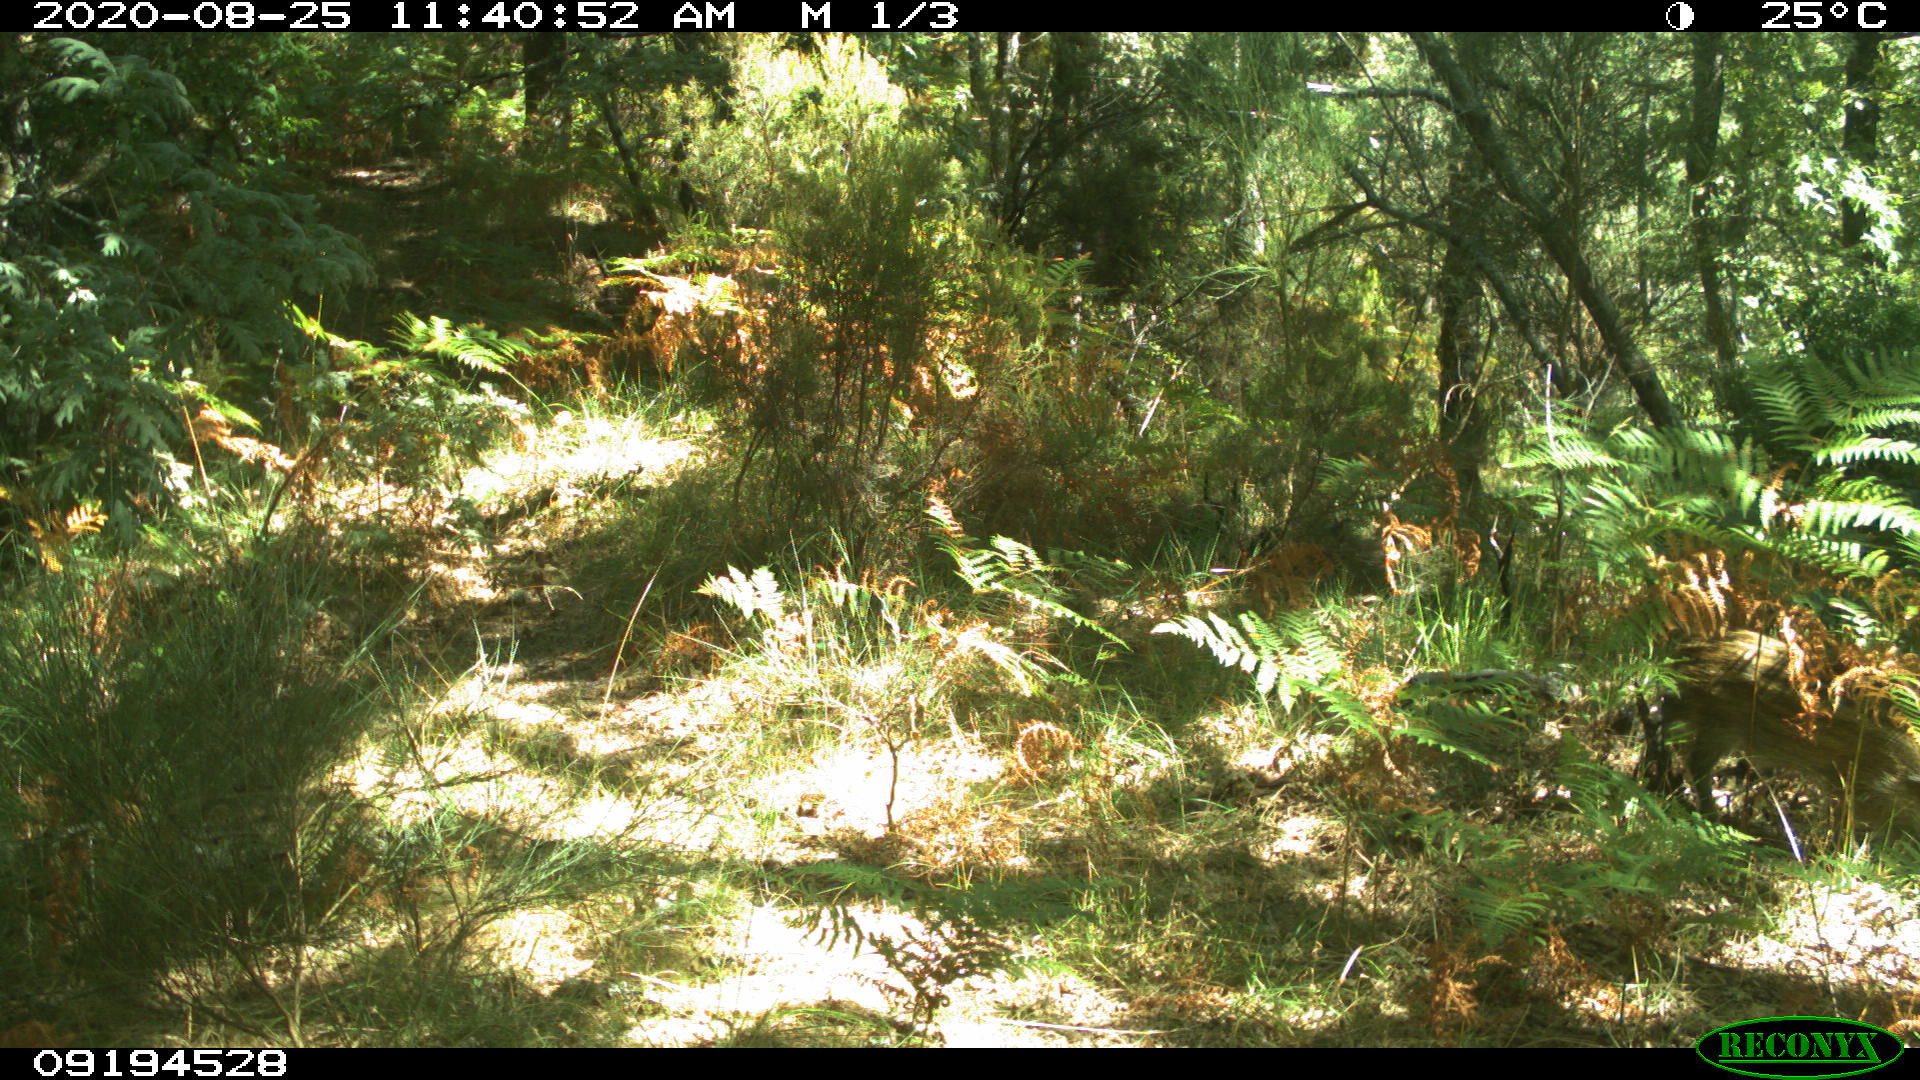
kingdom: Animalia
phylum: Chordata
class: Mammalia
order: Artiodactyla
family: Suidae
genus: Sus
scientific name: Sus scrofa
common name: Wild boar
